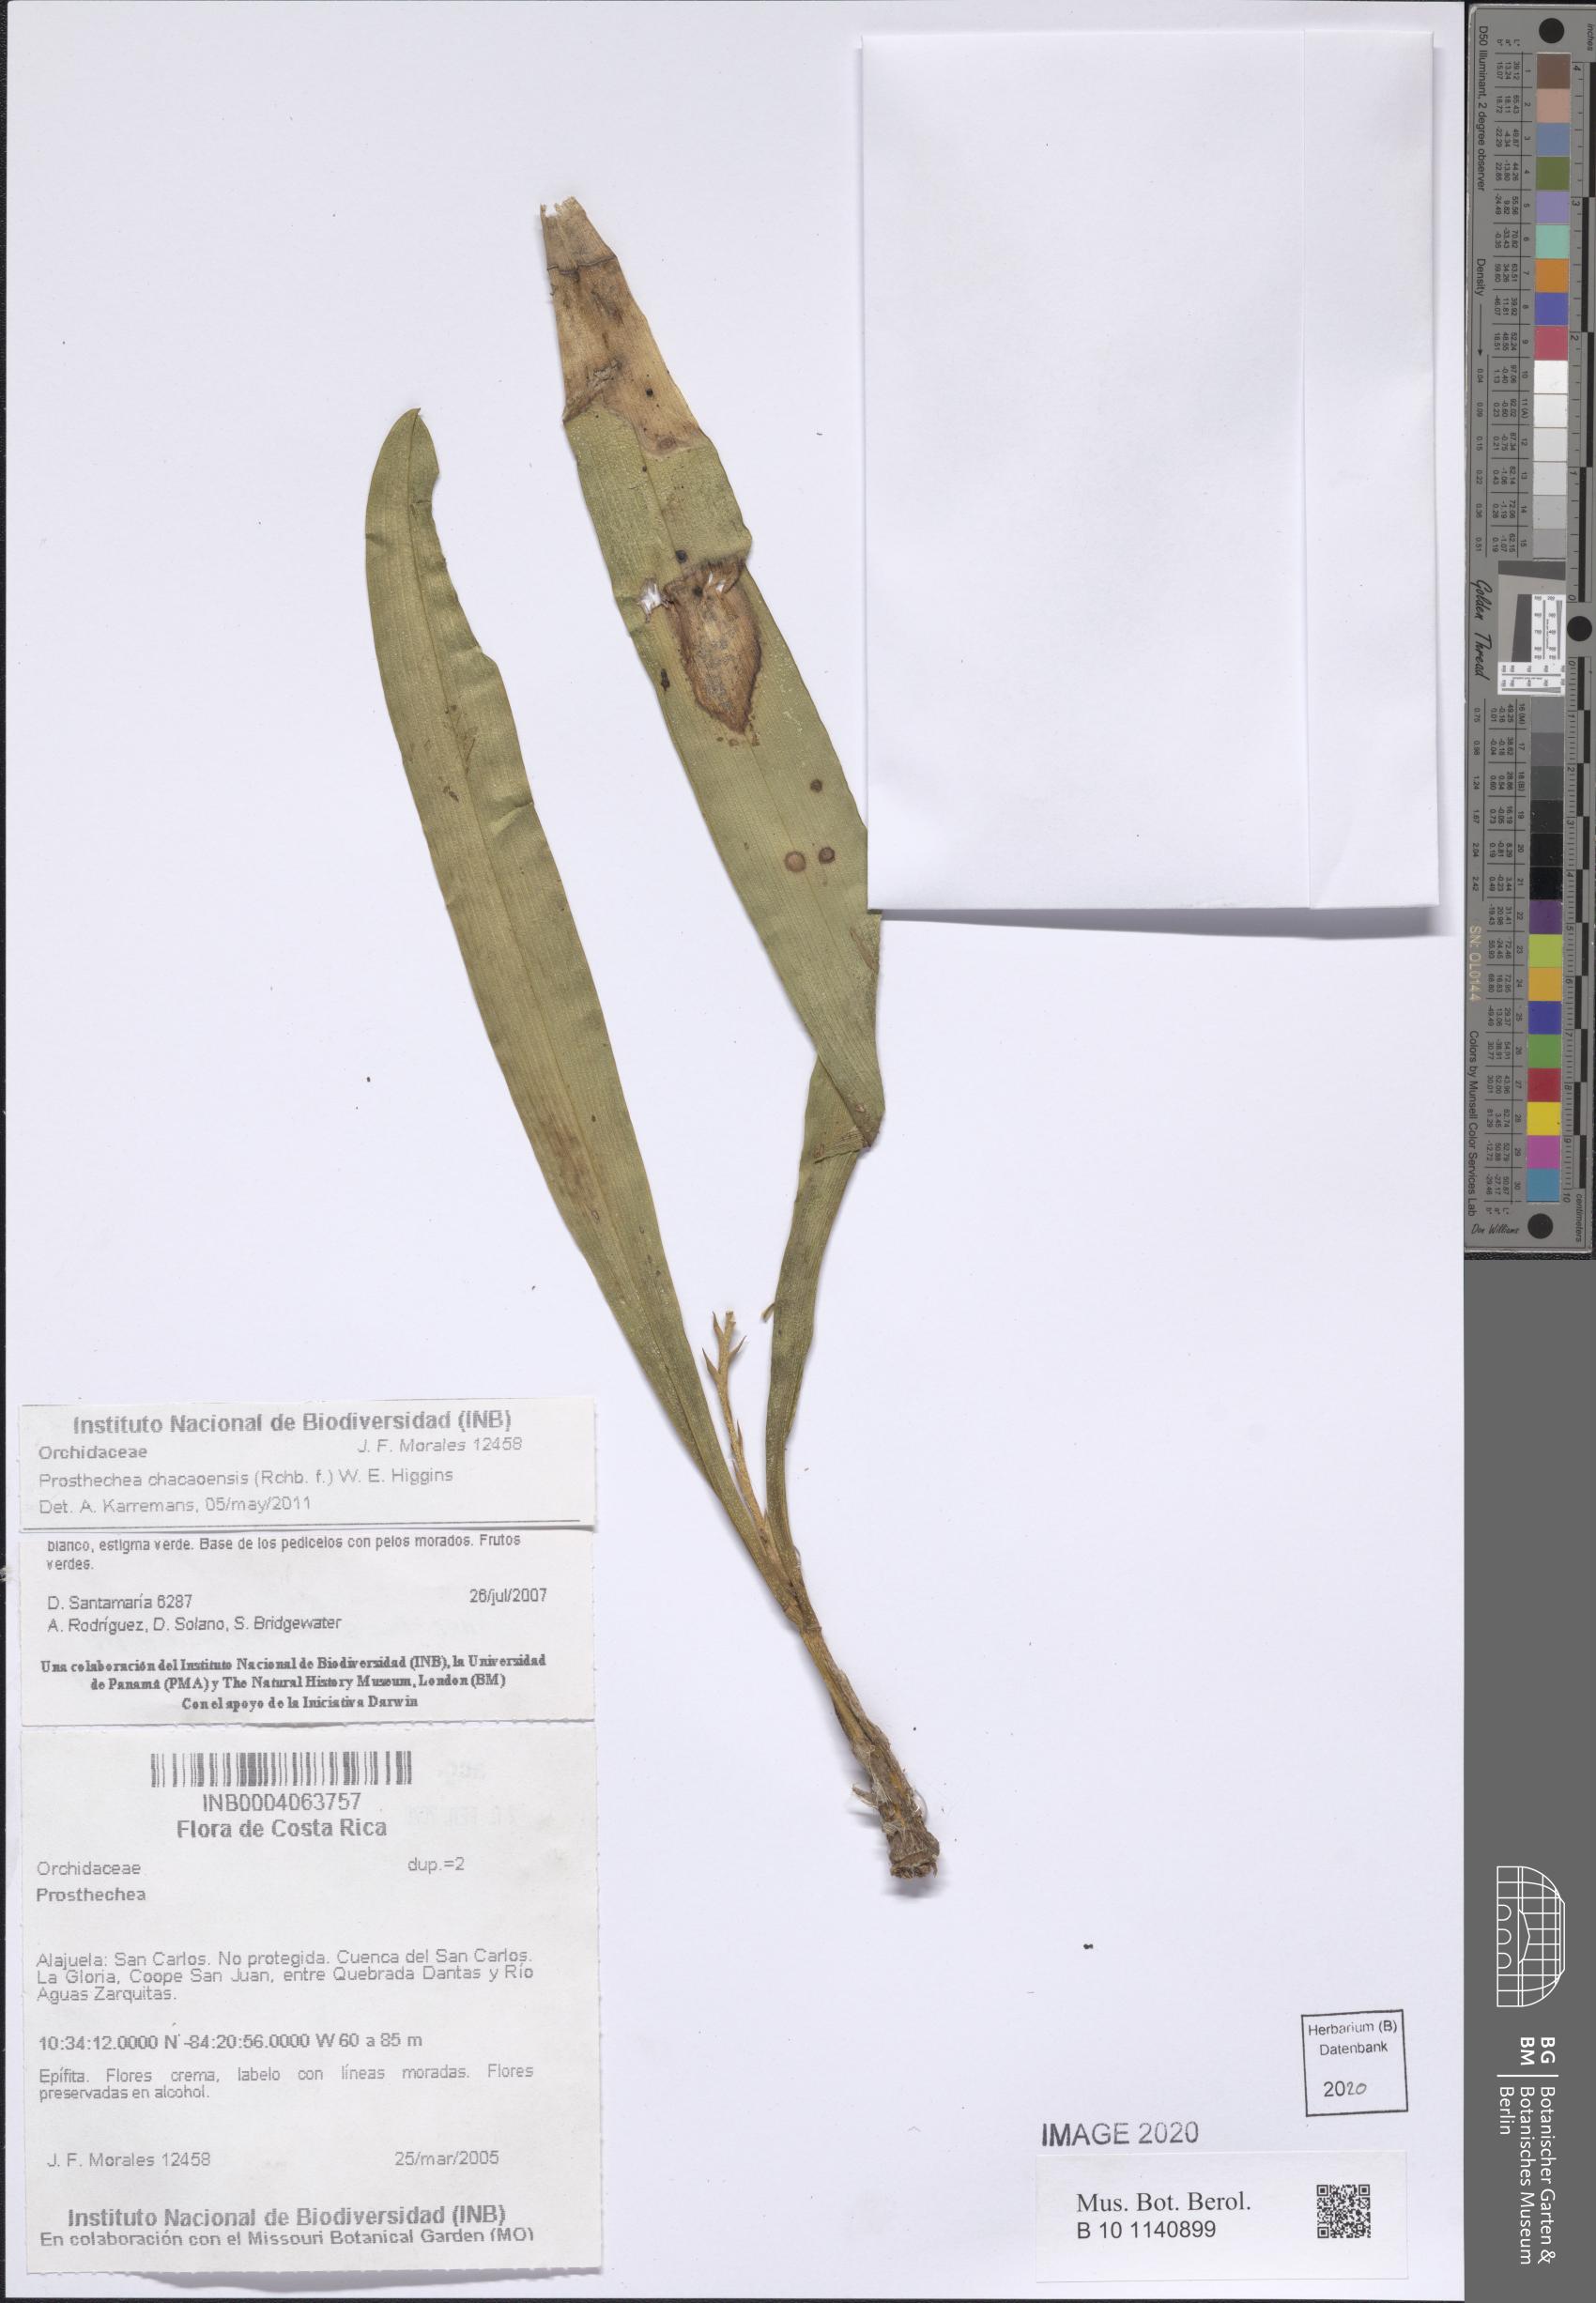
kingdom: Plantae
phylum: Tracheophyta
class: Liliopsida
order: Asparagales
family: Orchidaceae
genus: Prosthechea
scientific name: Prosthechea
